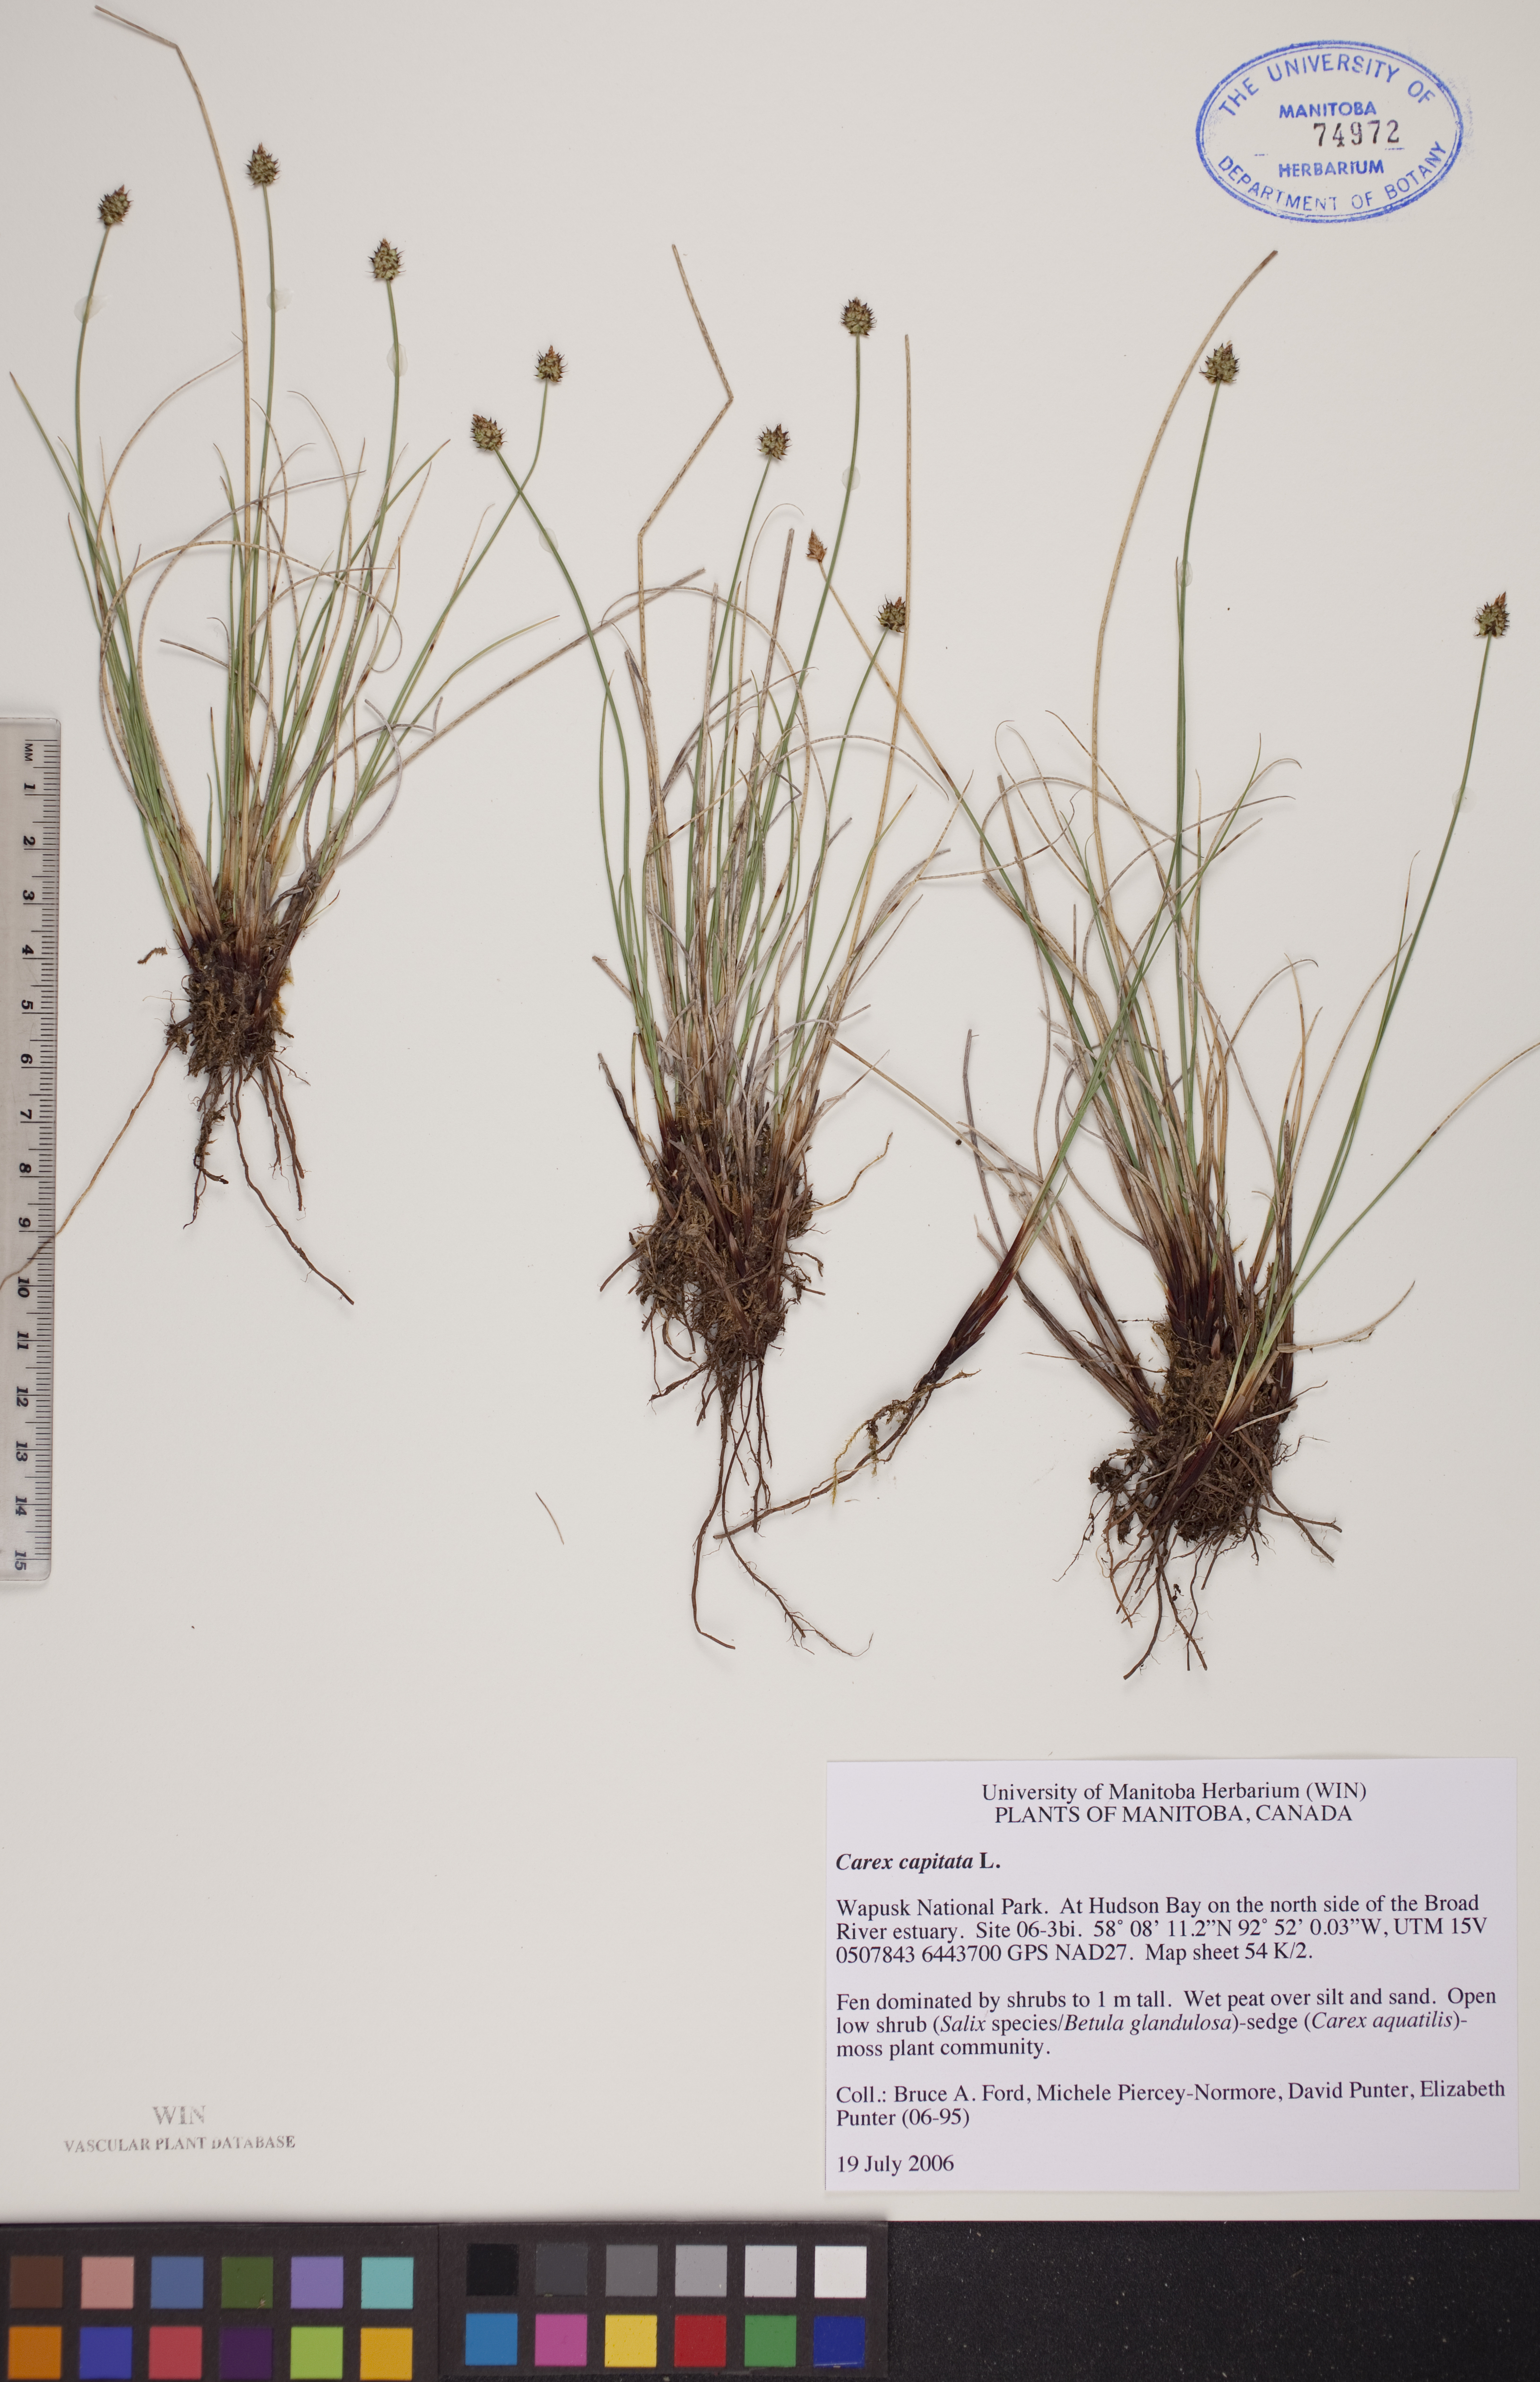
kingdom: Plantae
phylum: Tracheophyta
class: Liliopsida
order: Poales
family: Cyperaceae
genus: Carex
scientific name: Carex capitata
